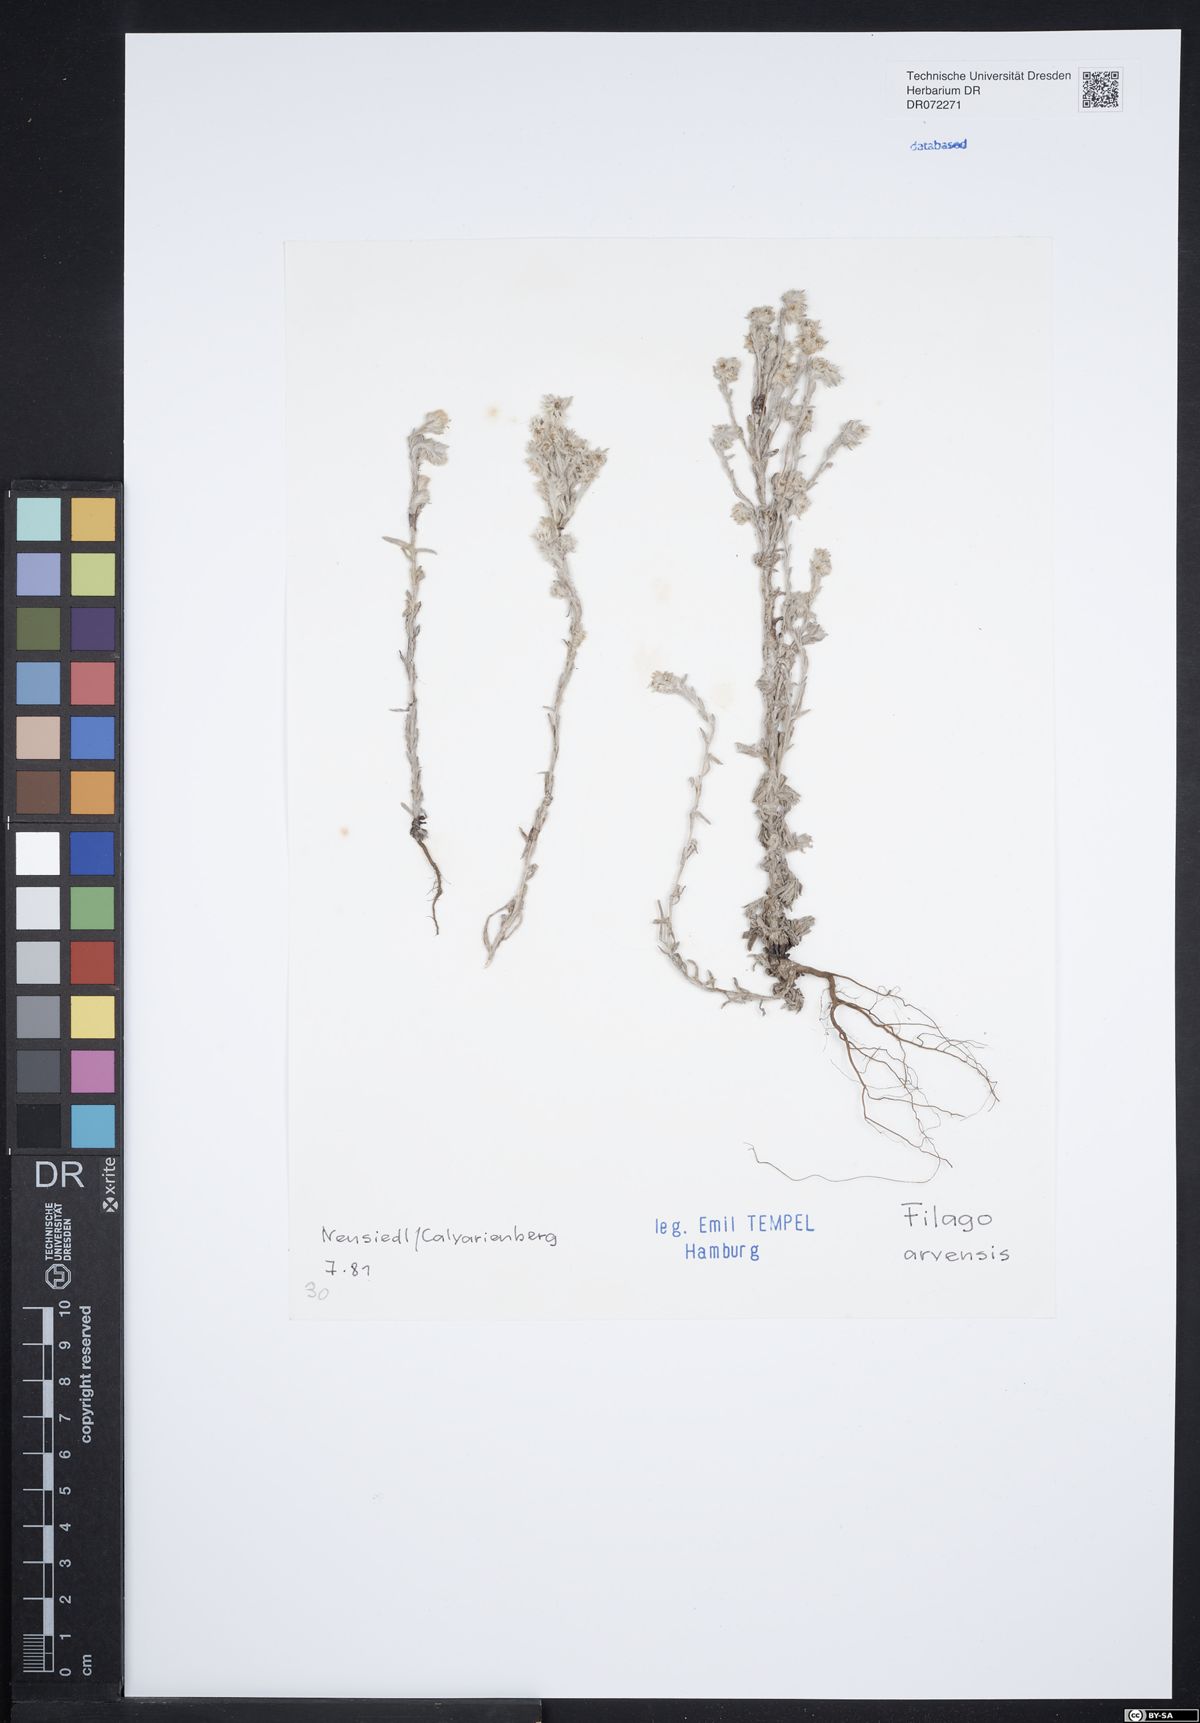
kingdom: Plantae
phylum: Tracheophyta
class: Magnoliopsida
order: Asterales
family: Asteraceae
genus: Filago
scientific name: Filago arvensis
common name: Field cudweed
